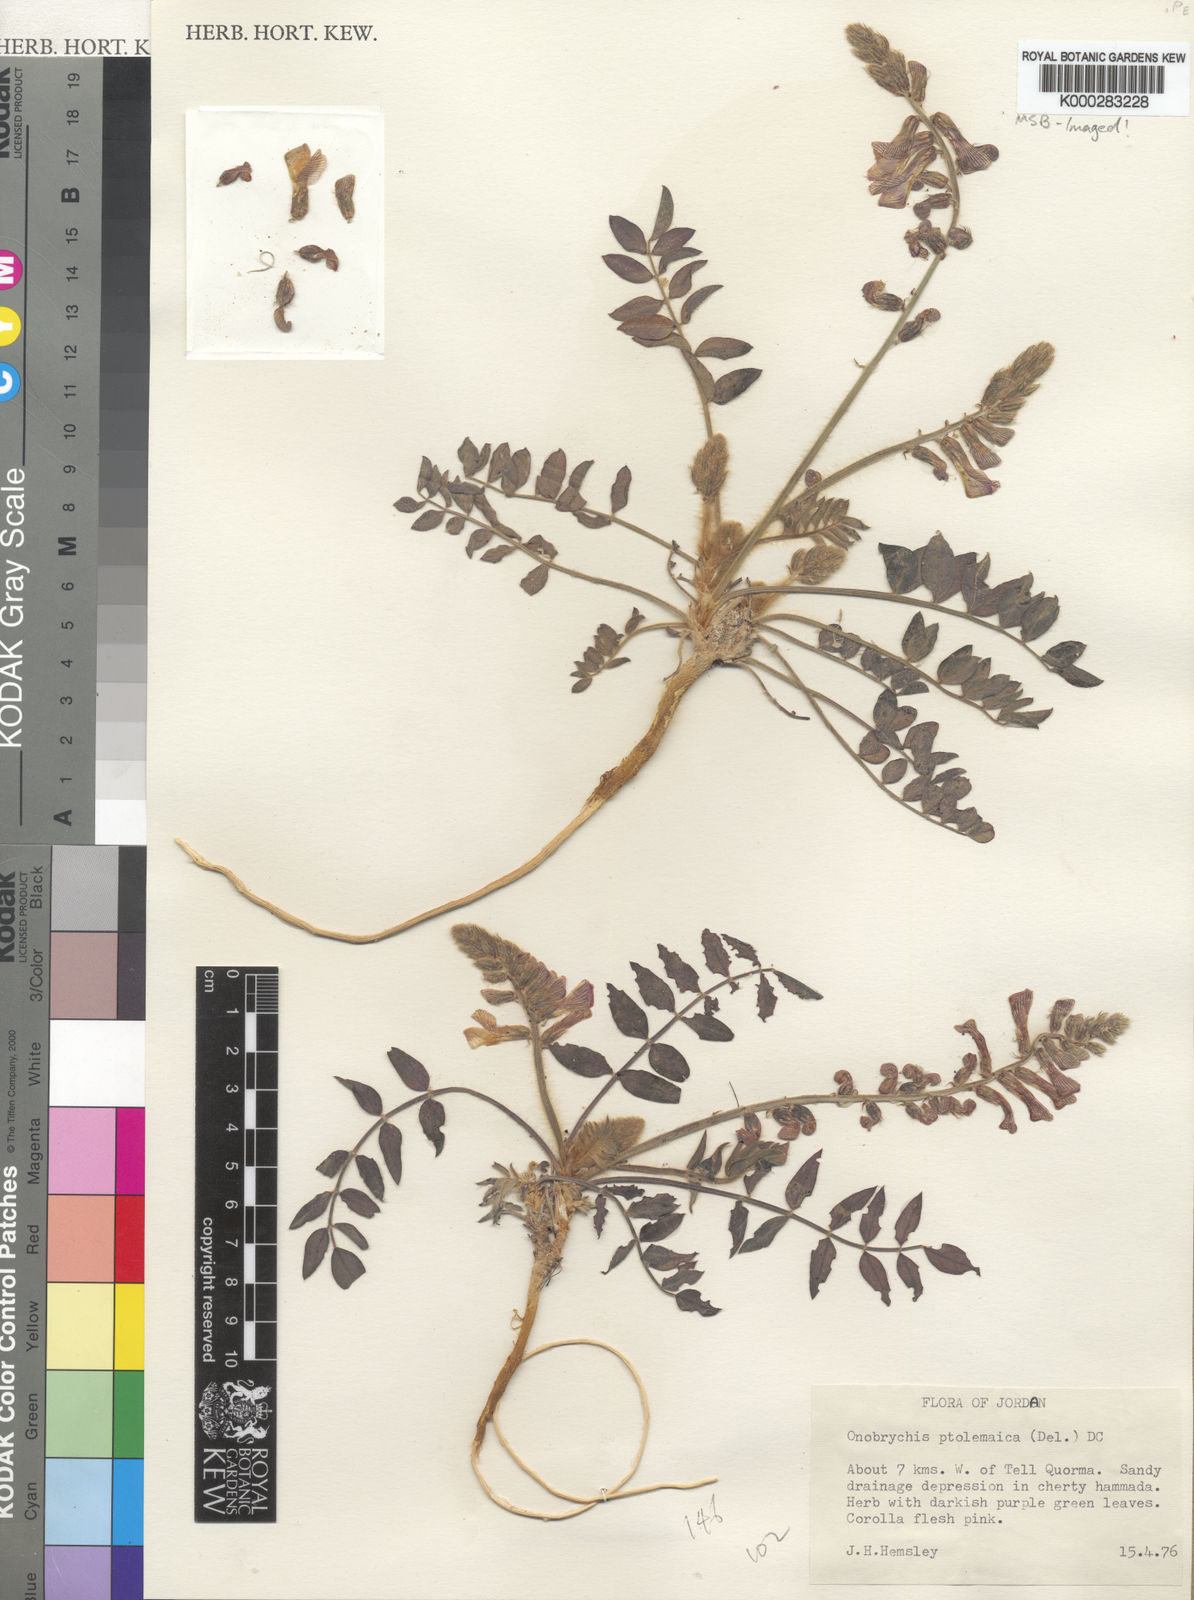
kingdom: Plantae
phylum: Tracheophyta
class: Magnoliopsida
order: Fabales
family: Fabaceae
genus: Onobrychis
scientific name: Onobrychis ptolemaica
